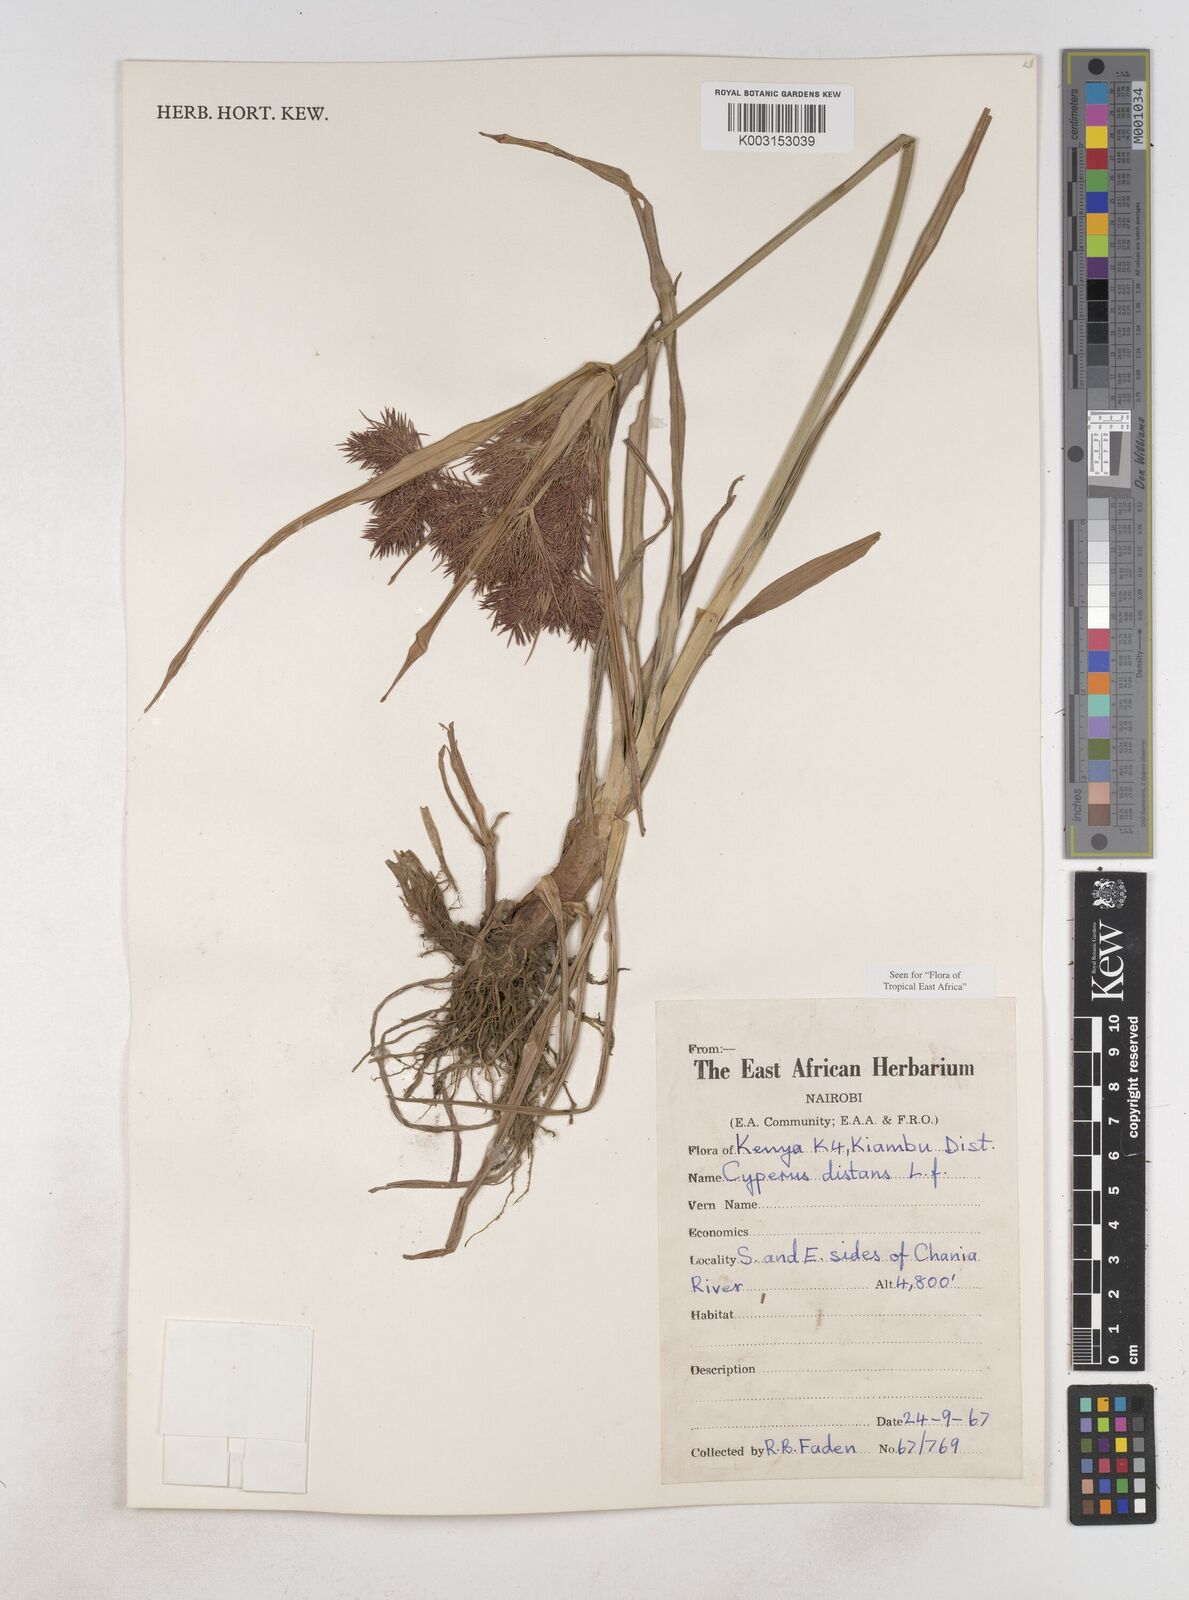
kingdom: Plantae
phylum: Tracheophyta
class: Liliopsida
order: Poales
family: Cyperaceae
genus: Cyperus
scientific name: Cyperus distans
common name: Slender cyperus
